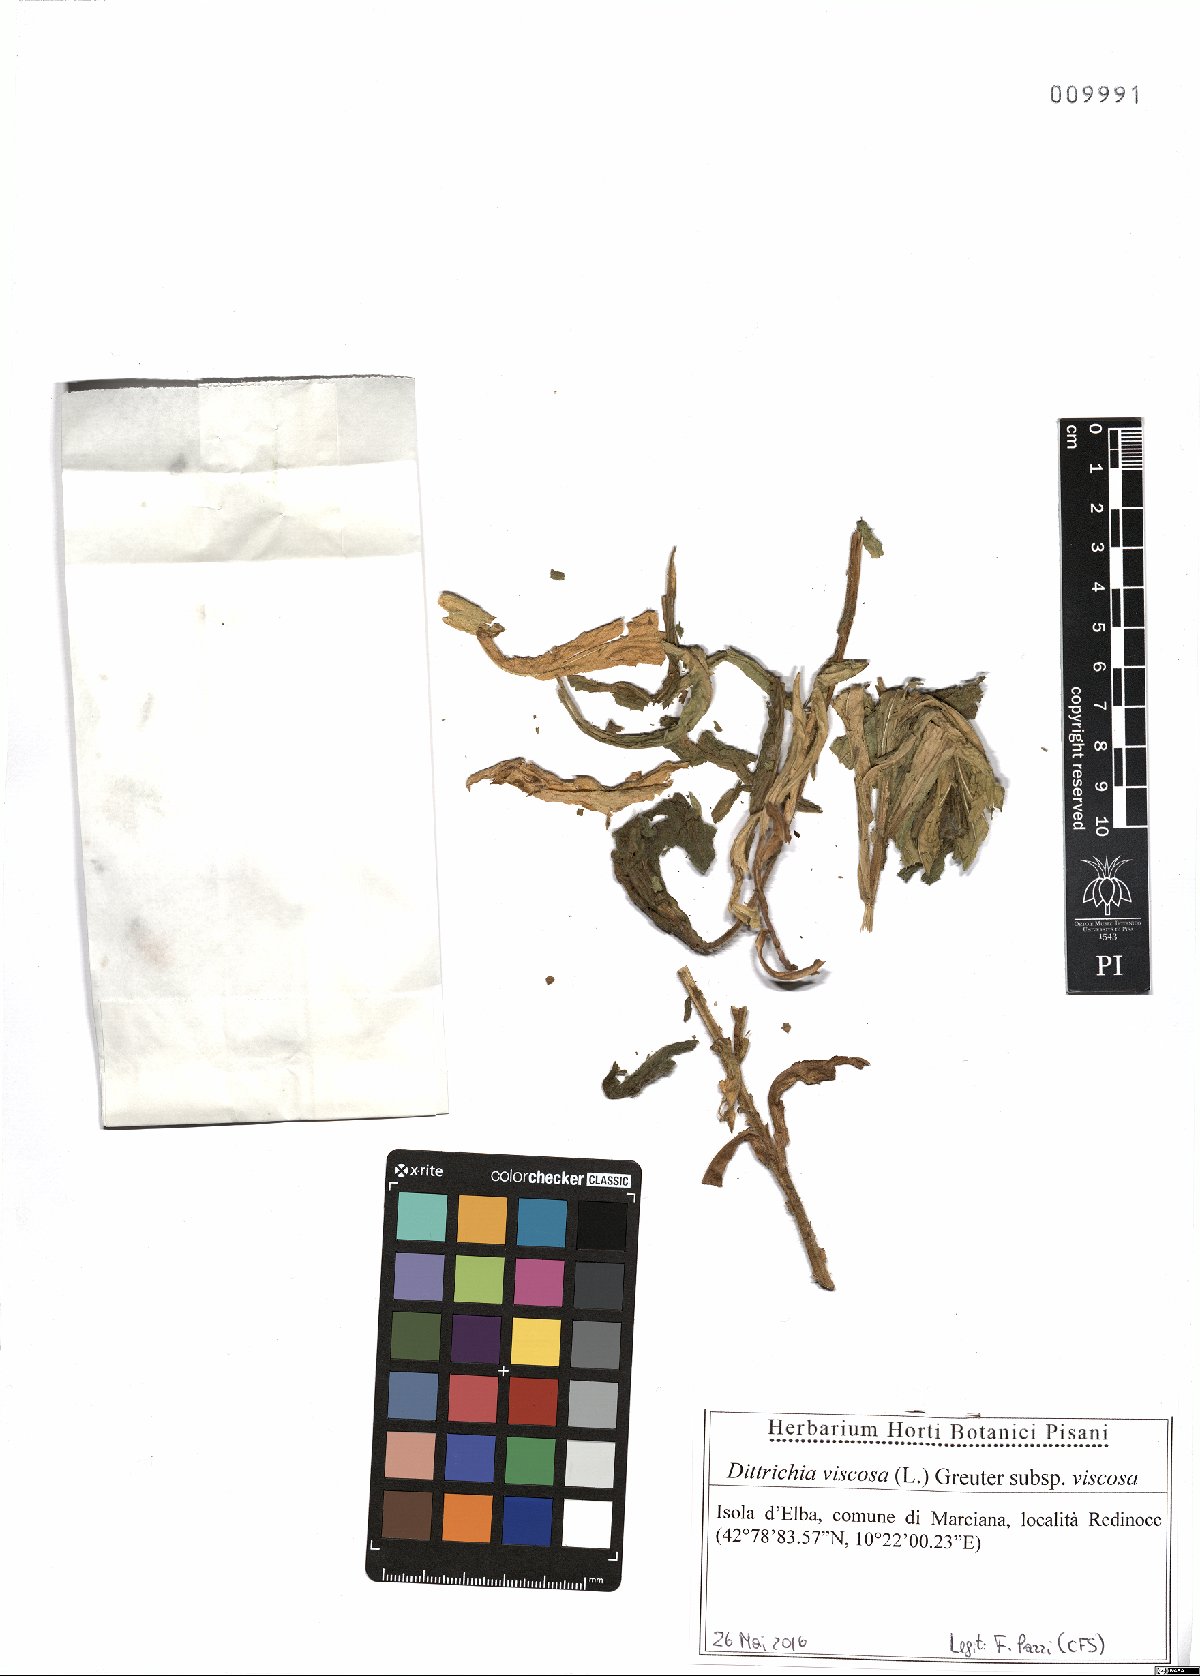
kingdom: Plantae
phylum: Tracheophyta
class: Magnoliopsida
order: Asterales
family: Asteraceae
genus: Dittrichia
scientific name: Dittrichia viscosa
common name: Woody fleabane
